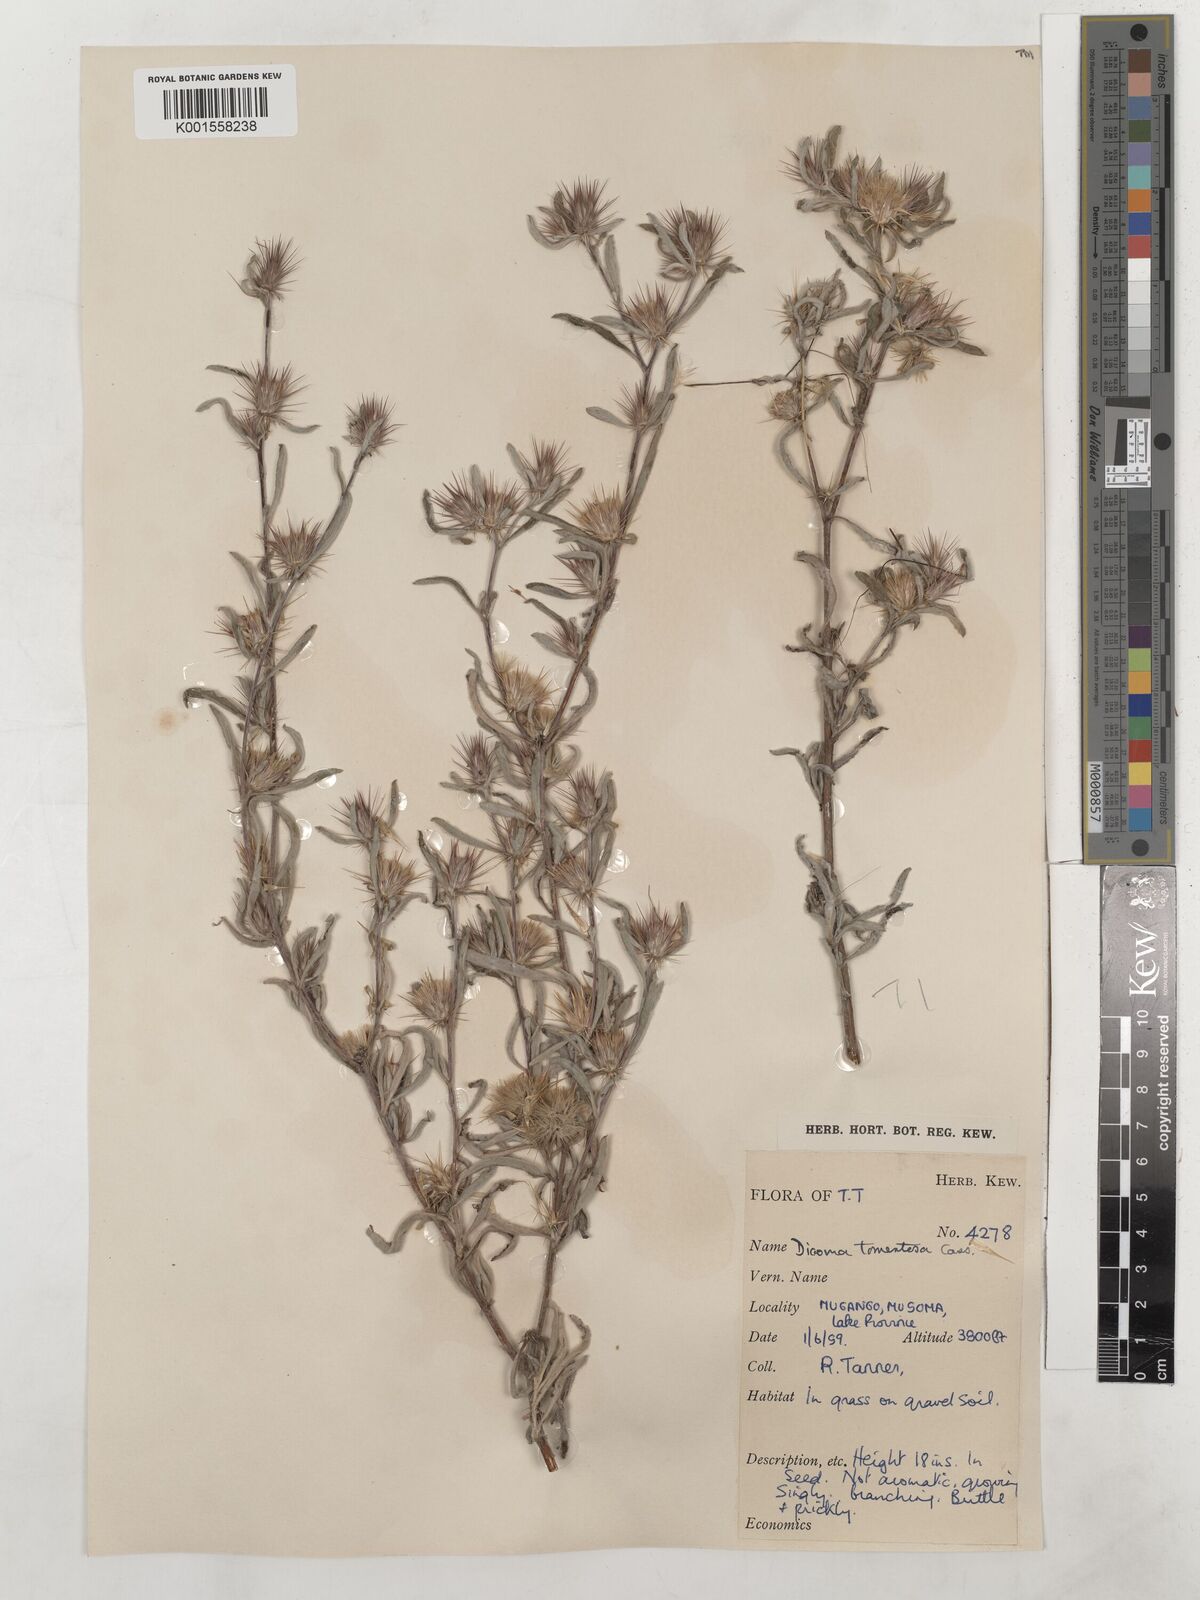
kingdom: Plantae
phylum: Tracheophyta
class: Magnoliopsida
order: Asterales
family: Asteraceae
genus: Dicoma
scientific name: Dicoma tomentosa
